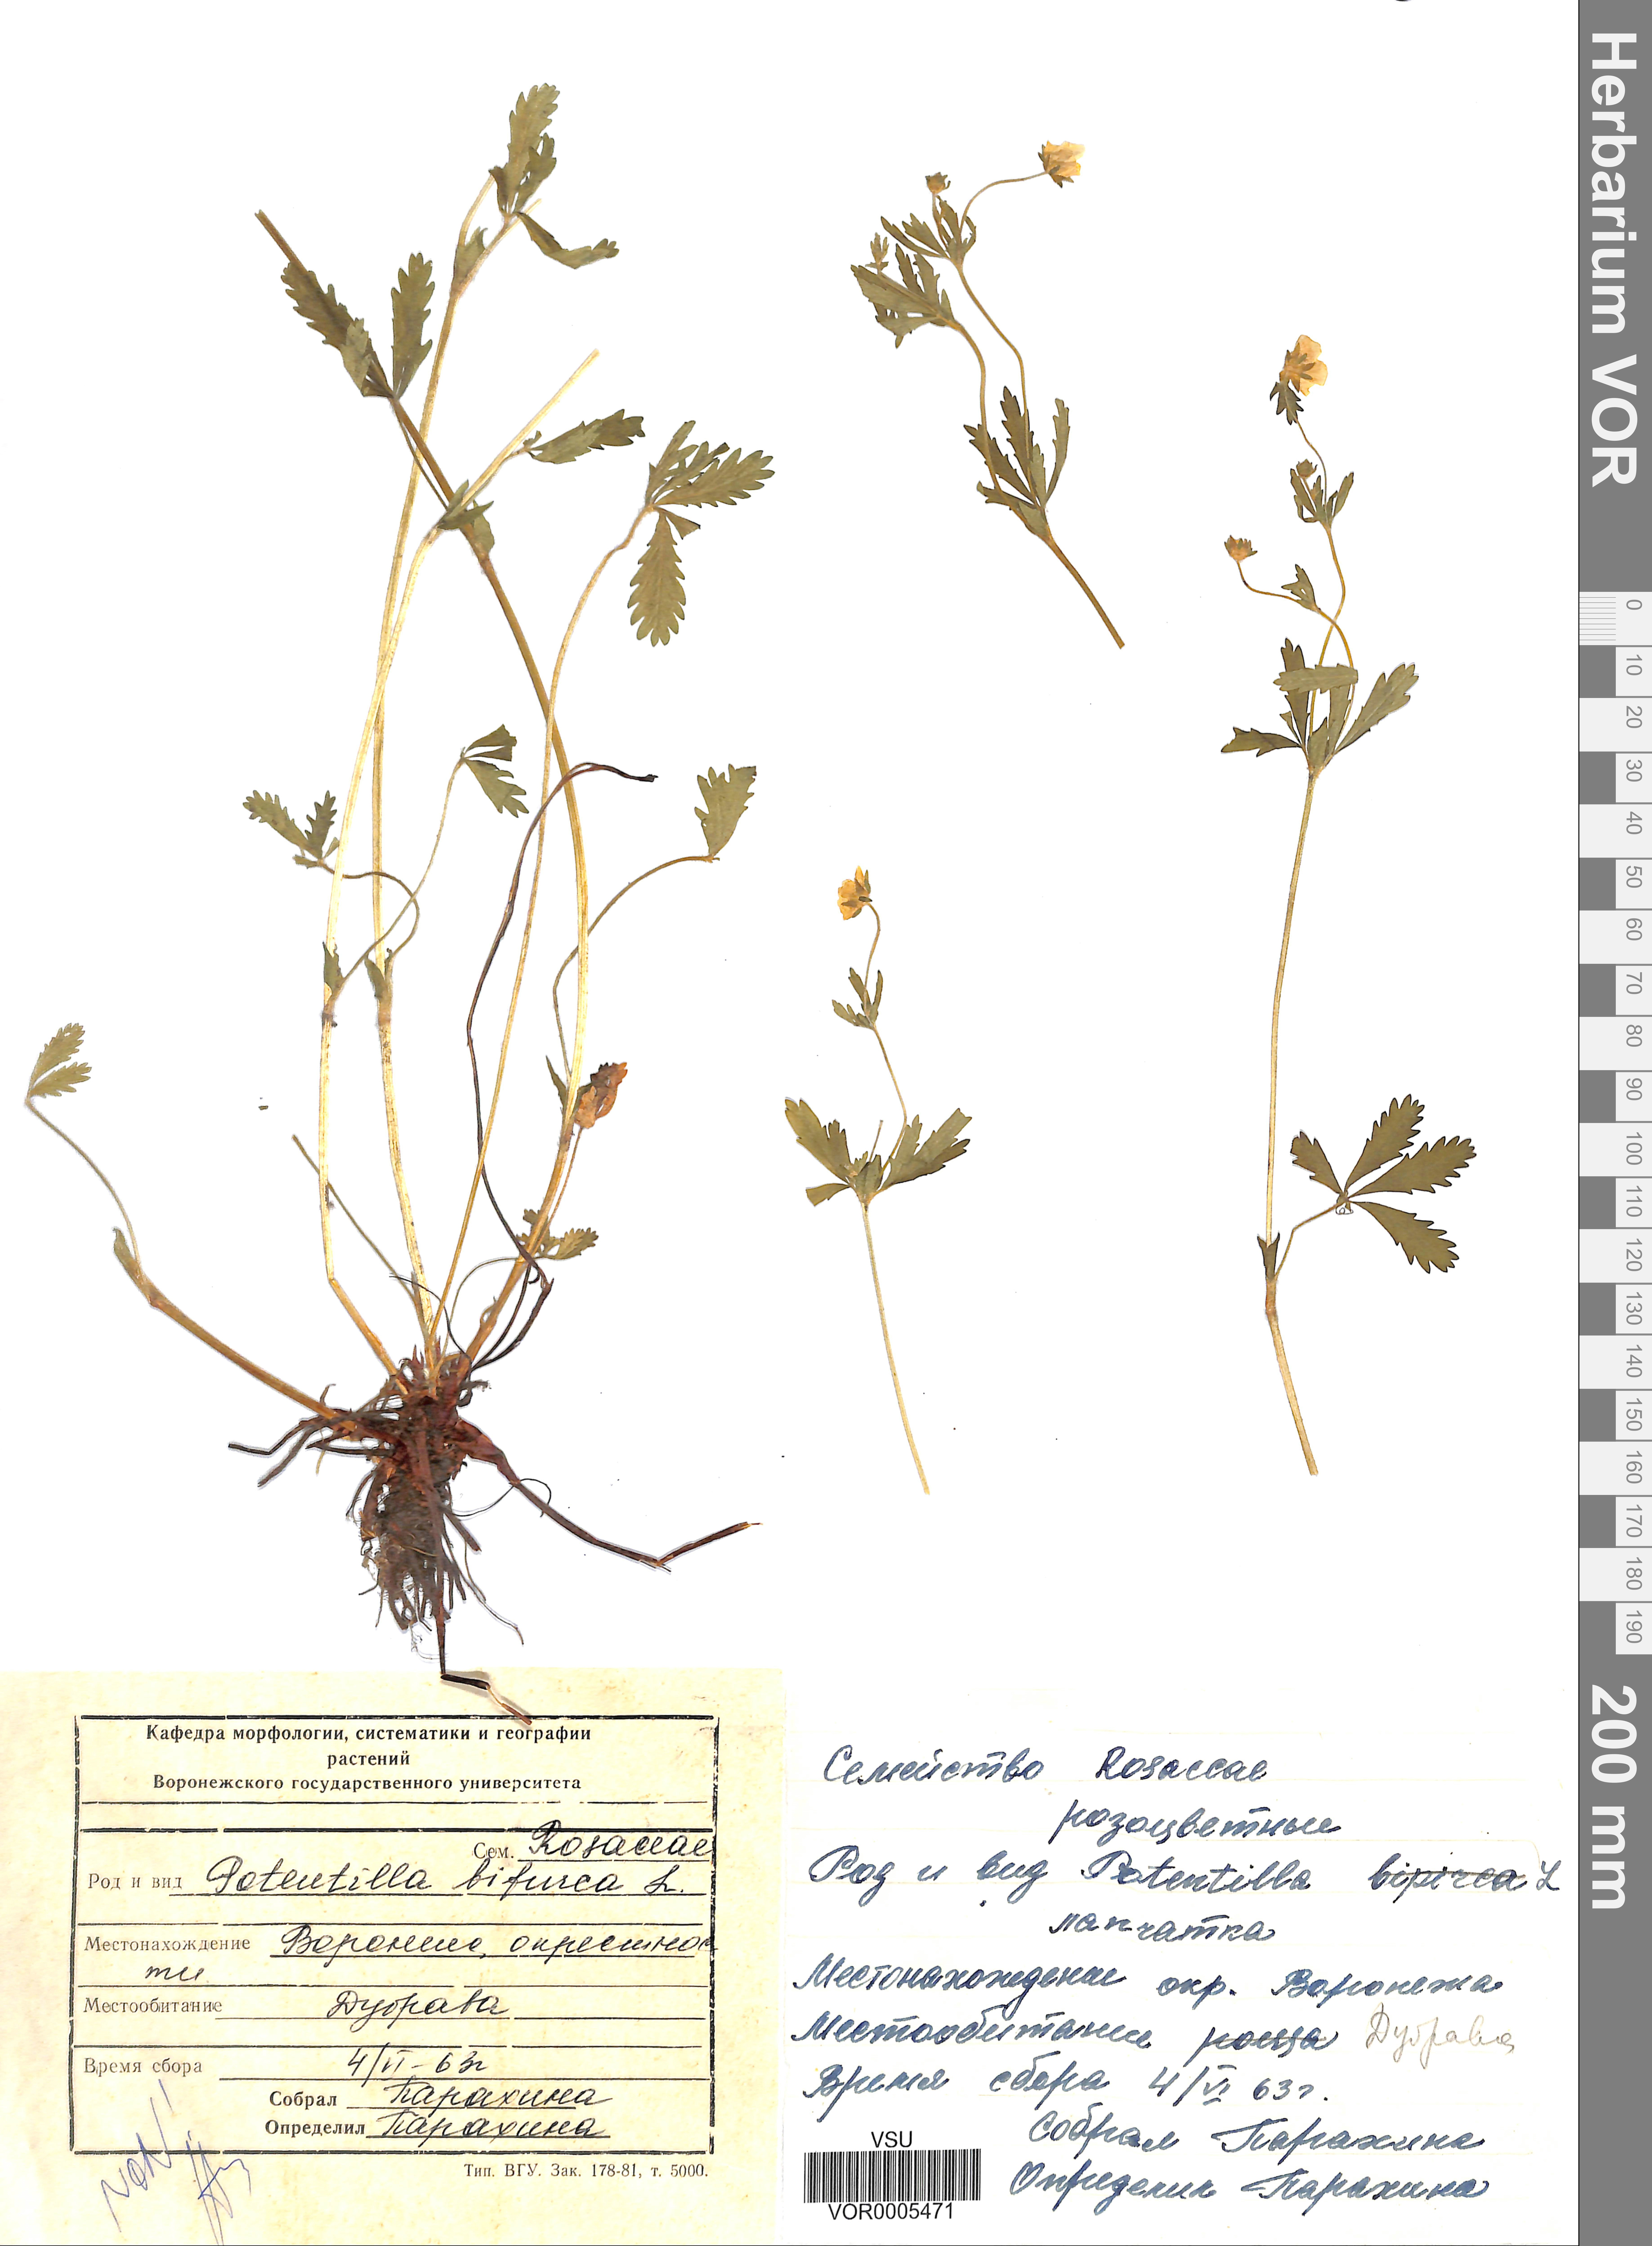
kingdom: Plantae
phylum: Tracheophyta
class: Magnoliopsida
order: Rosales
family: Rosaceae
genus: Potentilla
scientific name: Potentilla thuringiaca
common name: European cinquefoil
